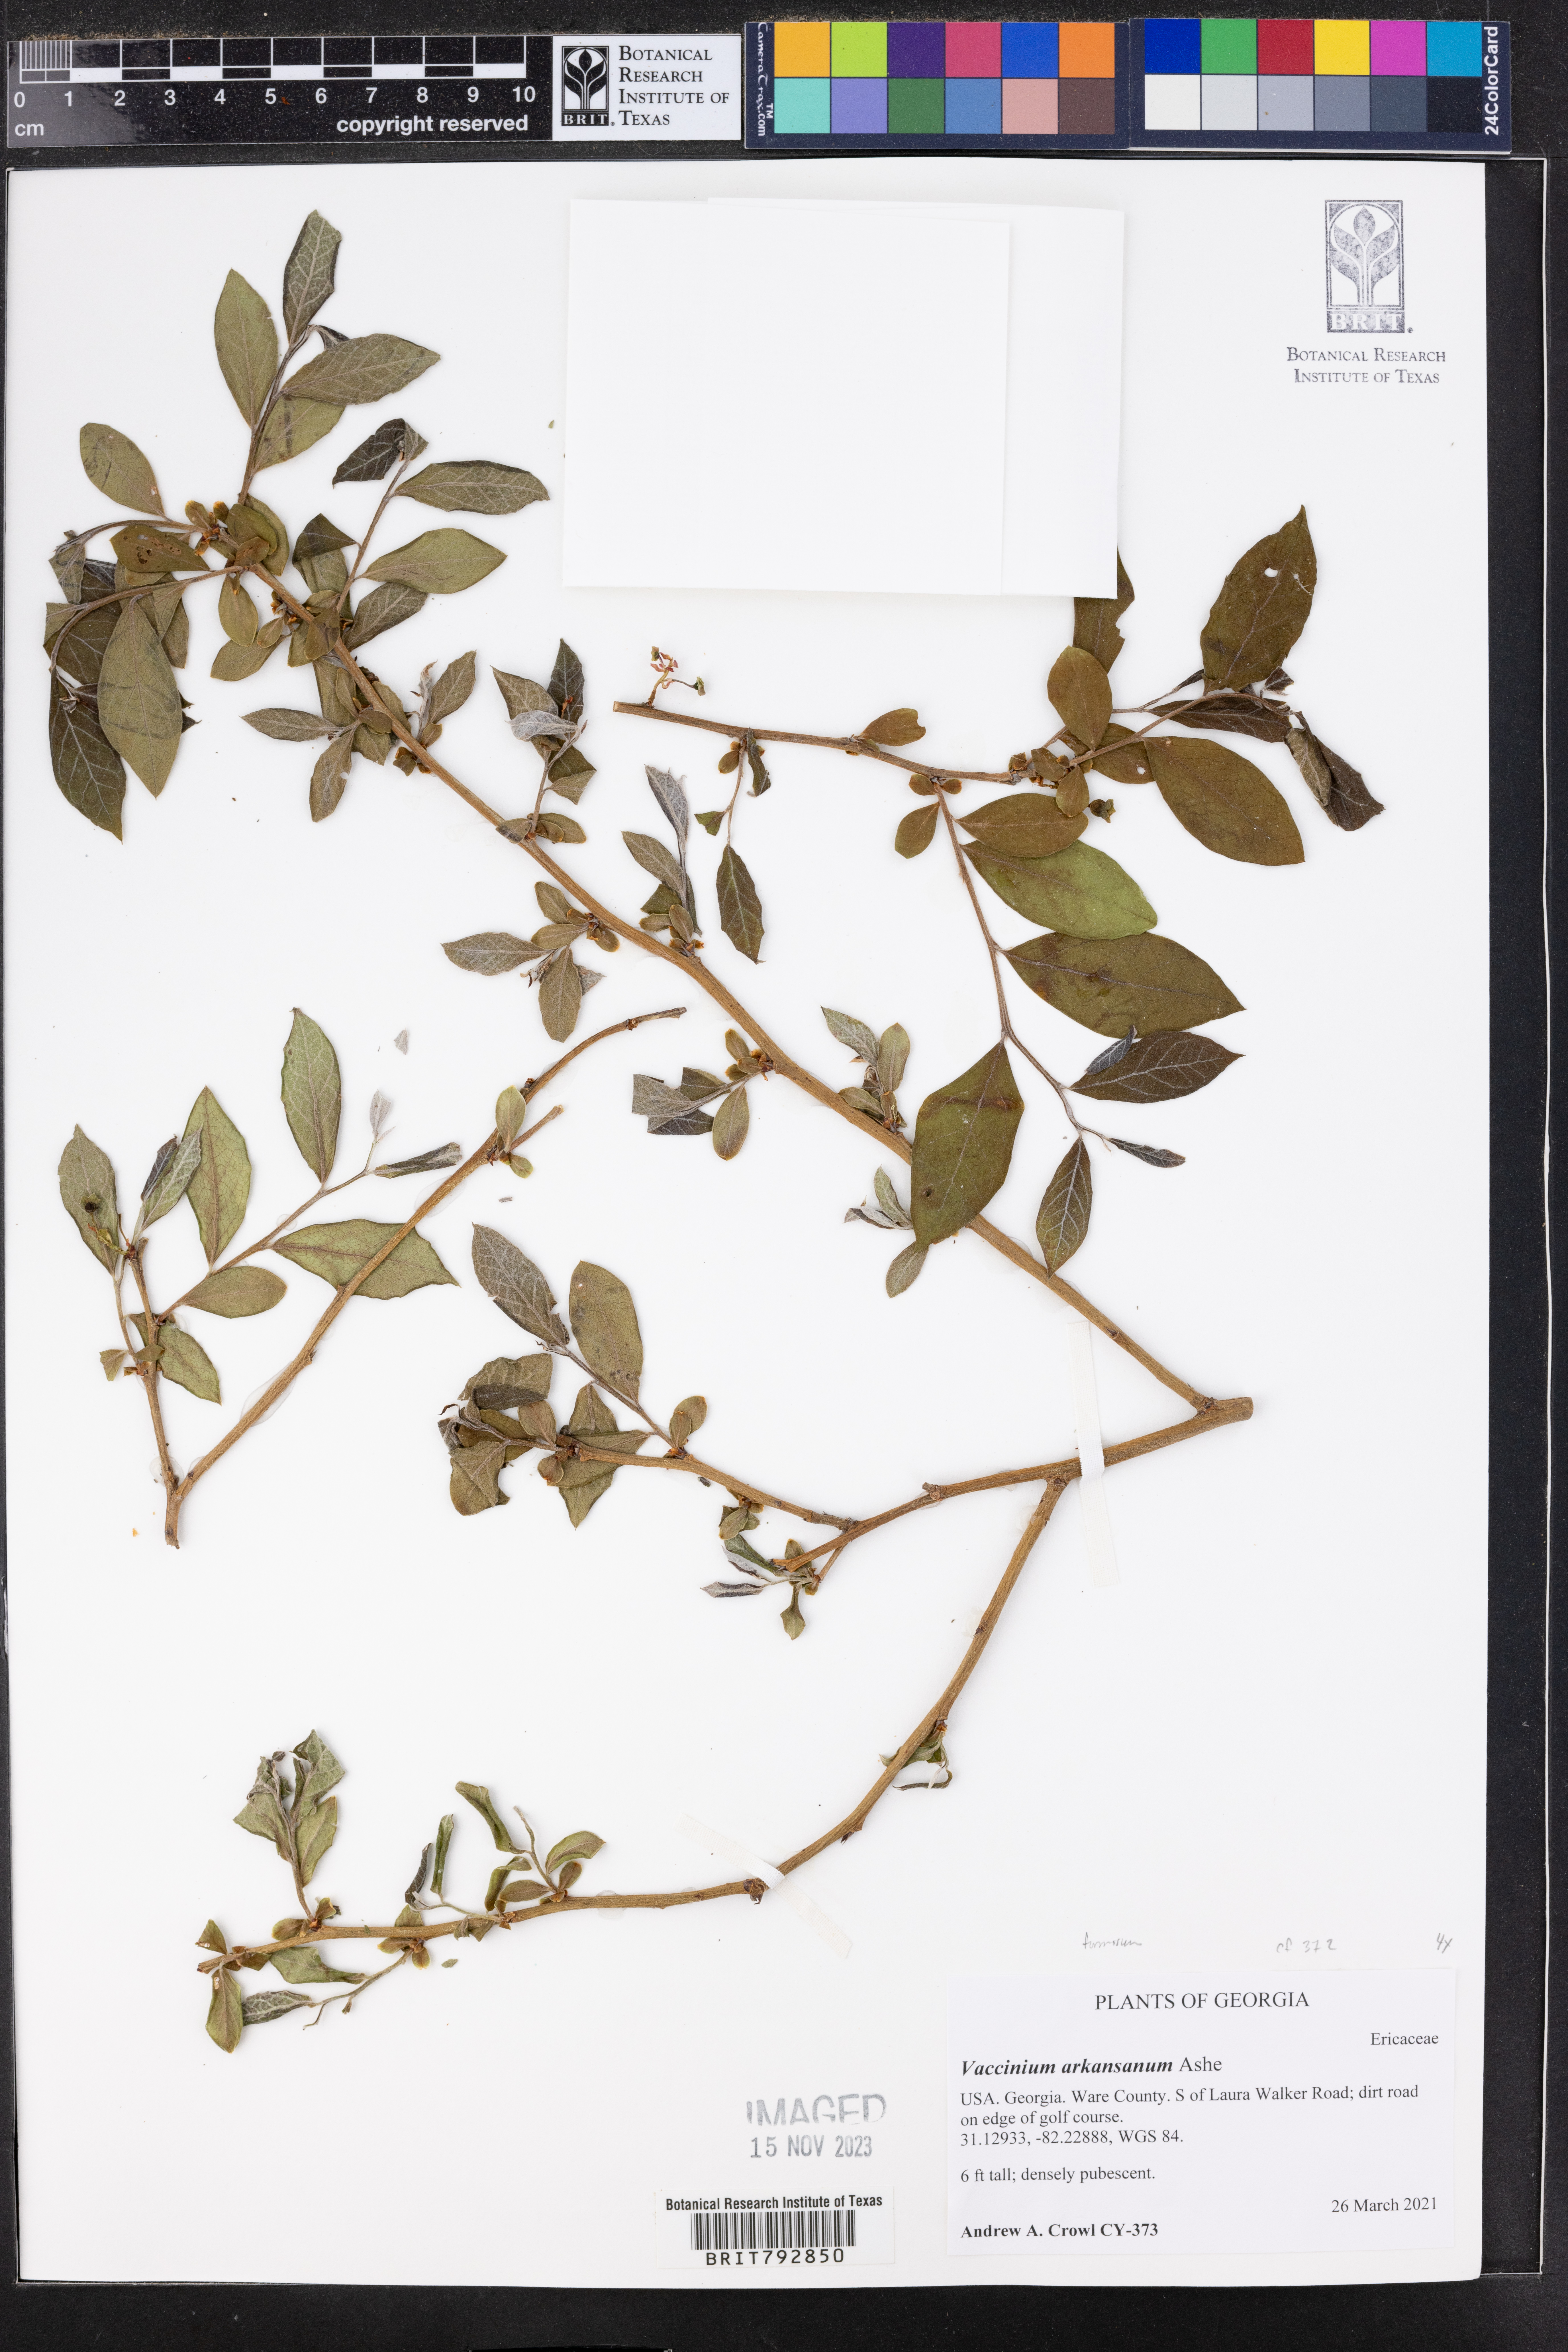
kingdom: Plantae
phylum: Tracheophyta
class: Magnoliopsida
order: Ericales
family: Ericaceae
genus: Vaccinium
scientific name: Vaccinium corymbosum
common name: Blueberry
